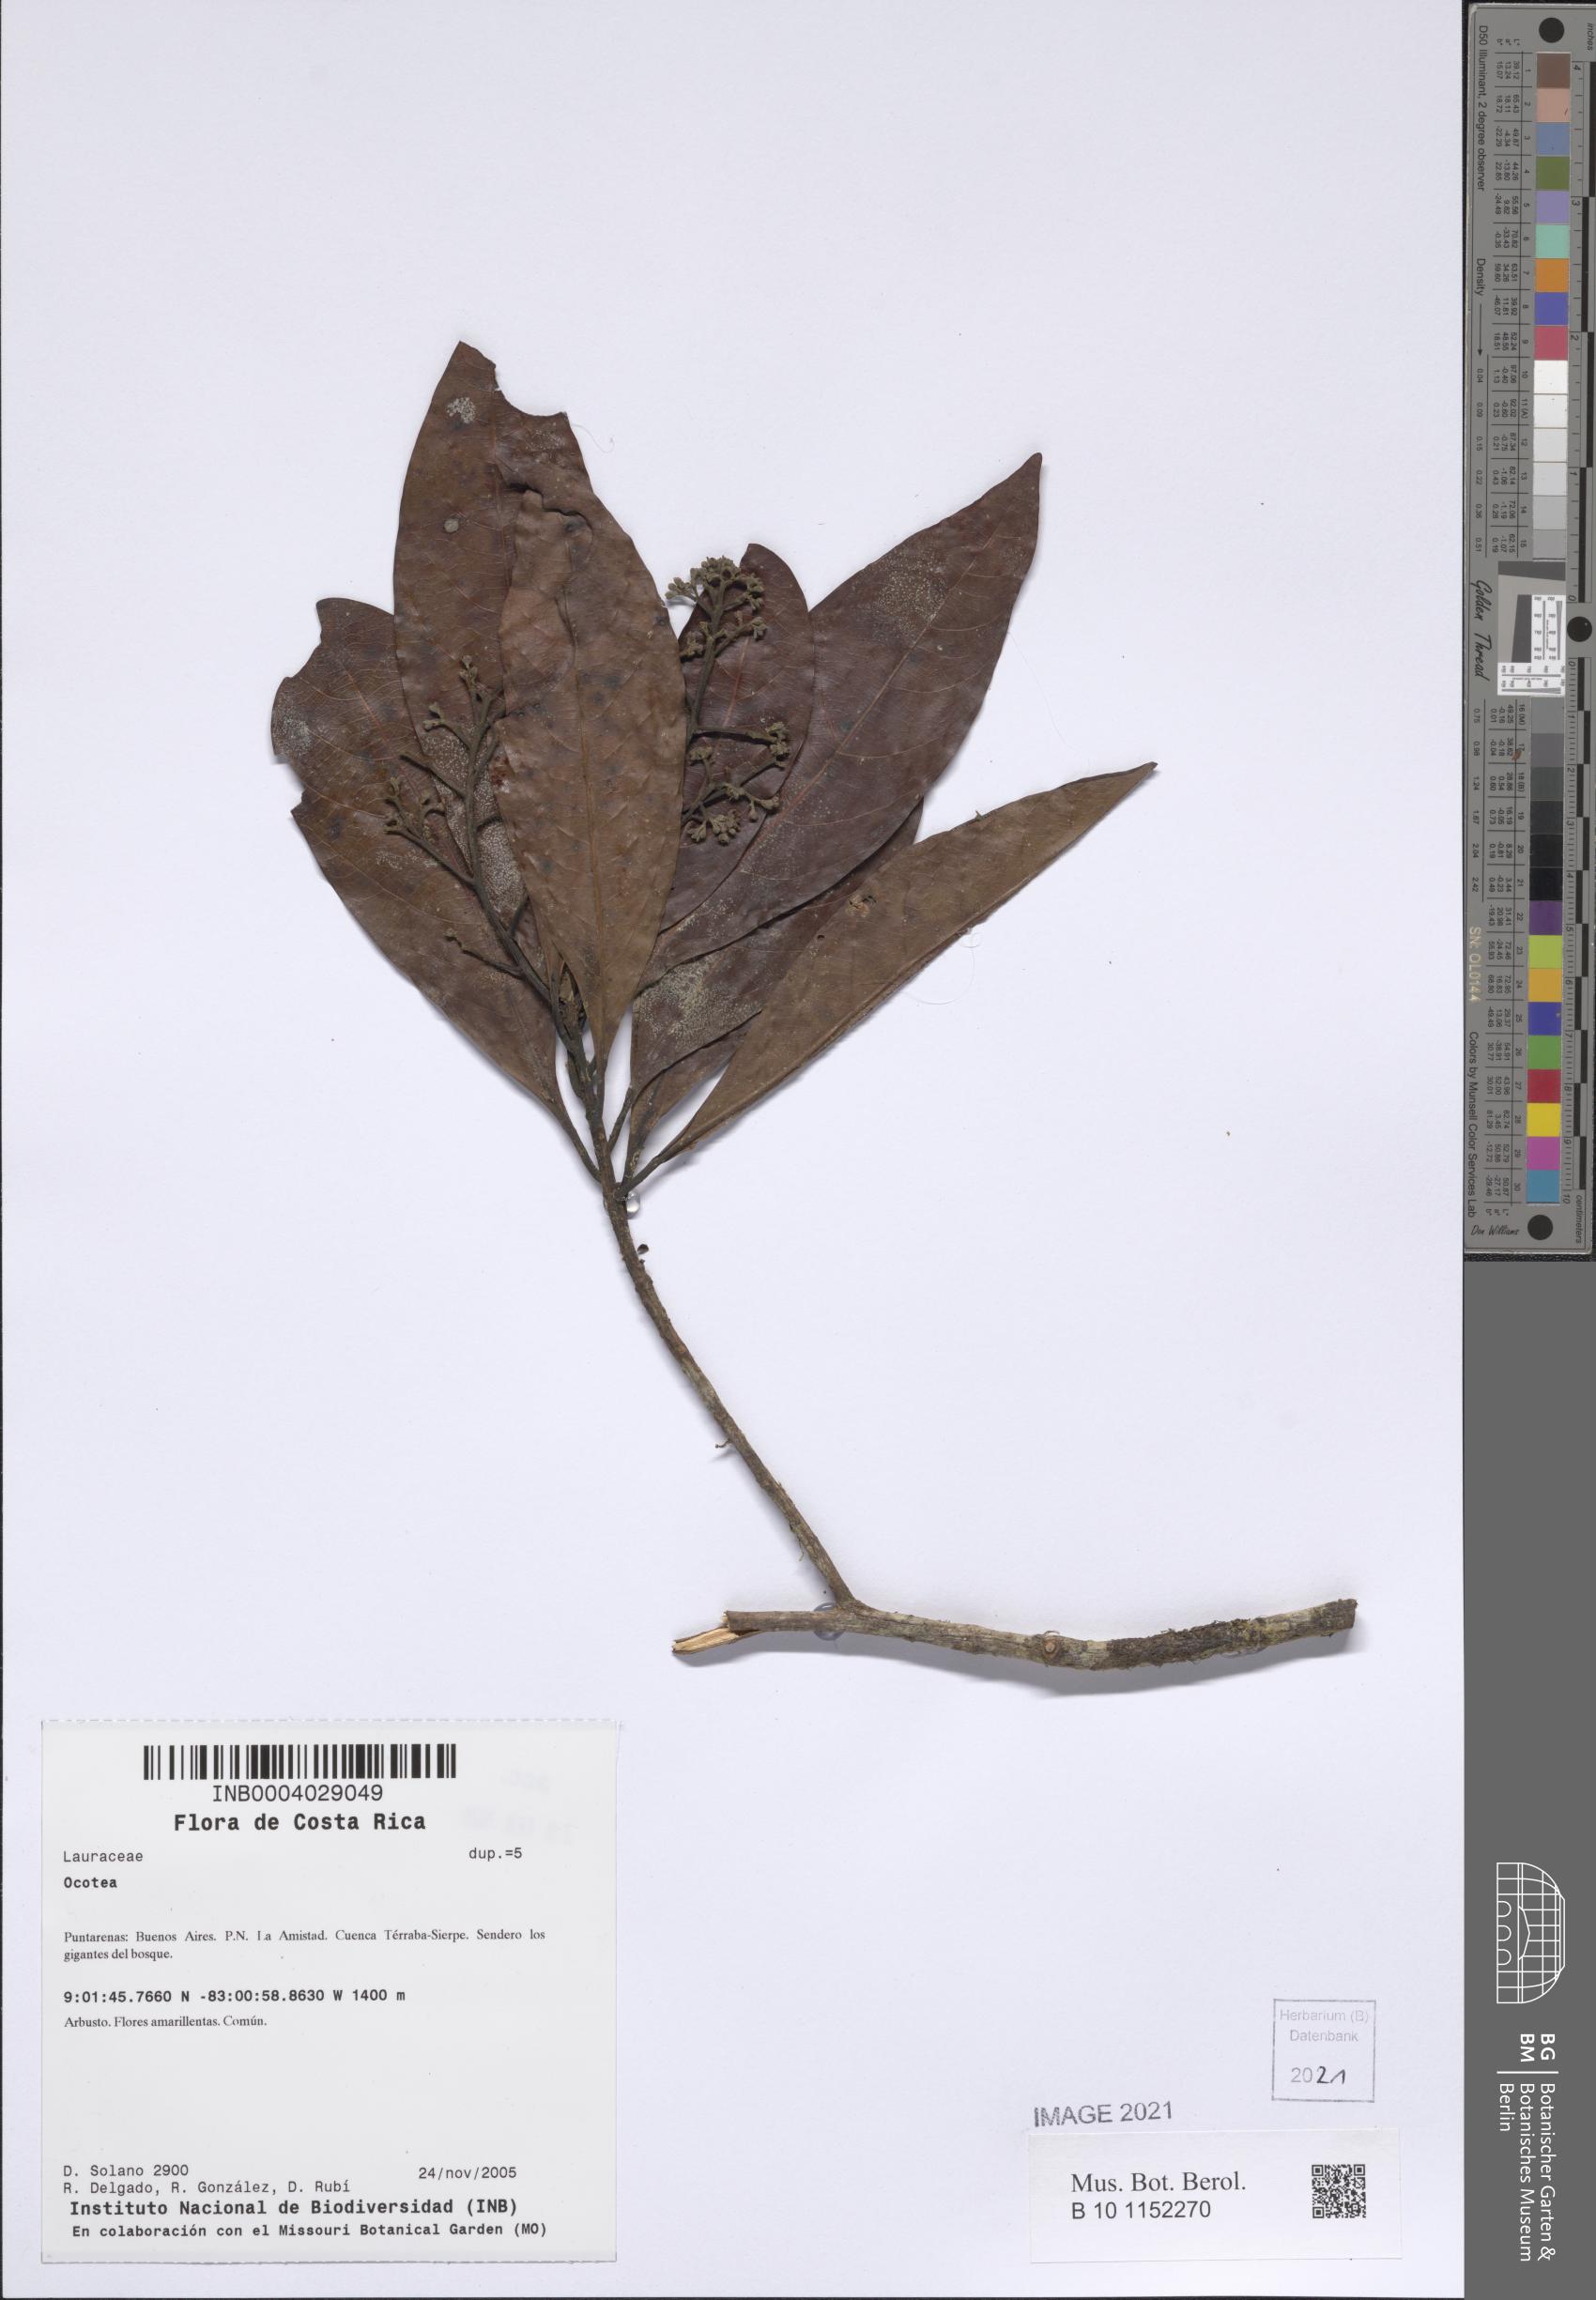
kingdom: Plantae
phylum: Tracheophyta
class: Magnoliopsida
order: Laurales
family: Lauraceae
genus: Ocotea
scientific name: Ocotea
